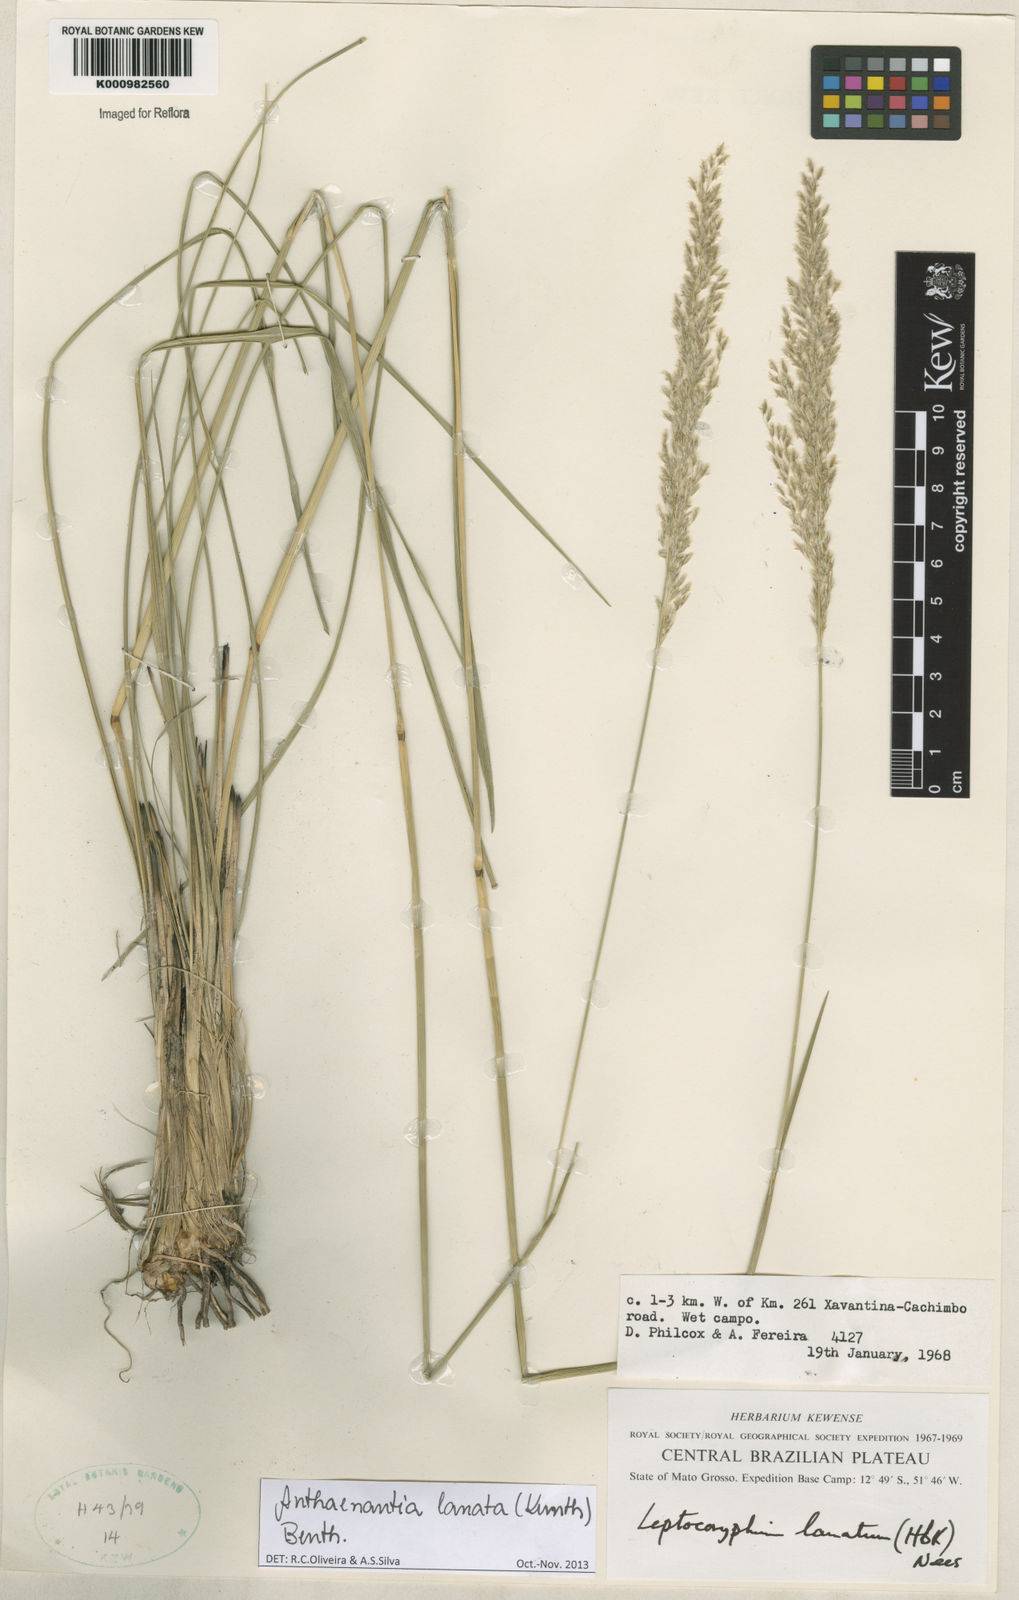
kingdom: Plantae
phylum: Tracheophyta
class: Liliopsida
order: Poales
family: Poaceae
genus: Anthenantia
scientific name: Anthenantia lanata
